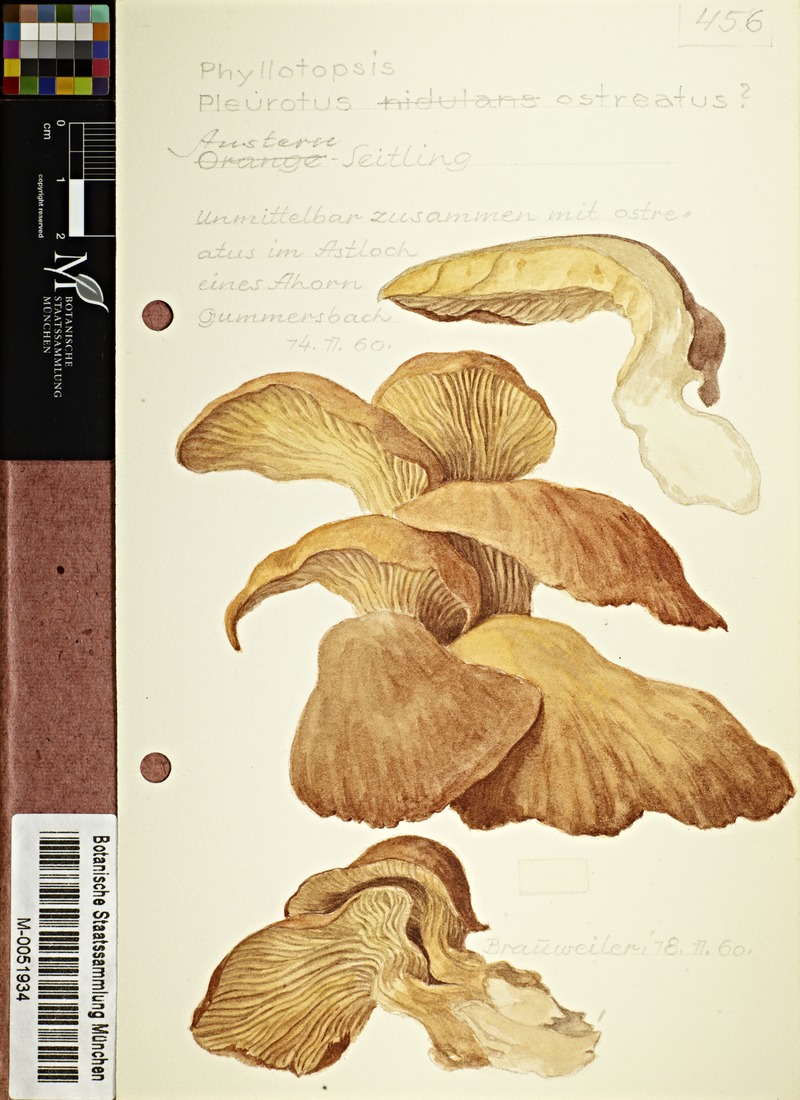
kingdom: Fungi
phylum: Basidiomycota
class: Agaricomycetes
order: Agaricales
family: Pleurotaceae
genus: Pleurotus
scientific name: Pleurotus ostreatus
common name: Oyster mushroom
